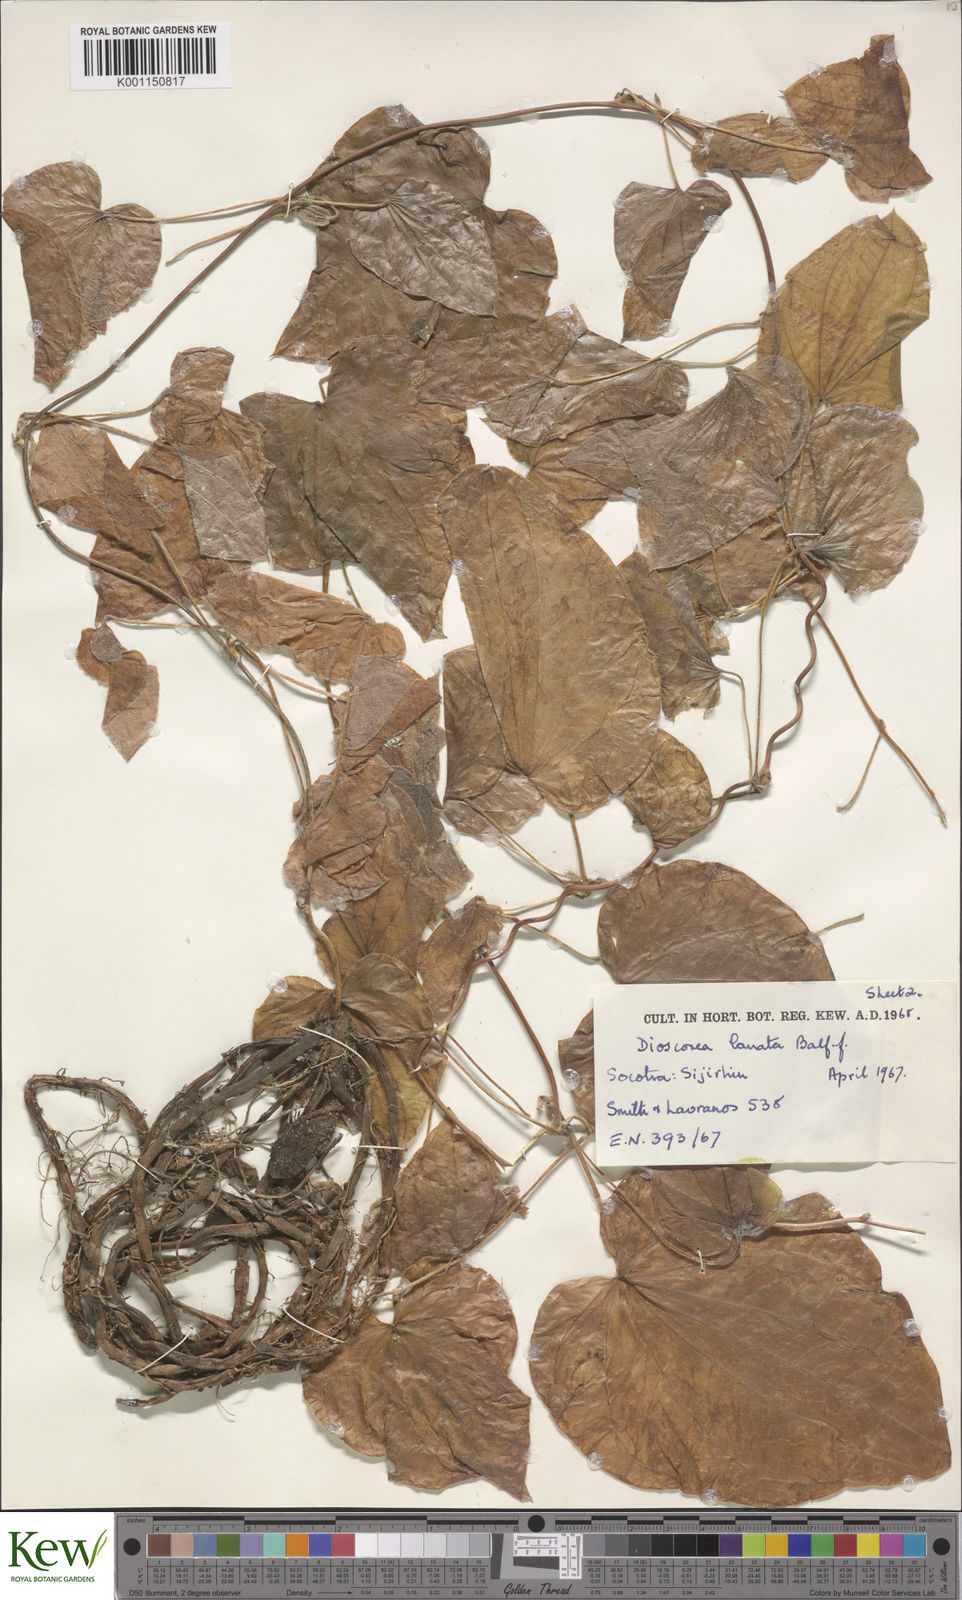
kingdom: Plantae
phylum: Tracheophyta
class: Liliopsida
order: Dioscoreales
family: Dioscoreaceae
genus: Dioscorea
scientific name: Dioscorea
